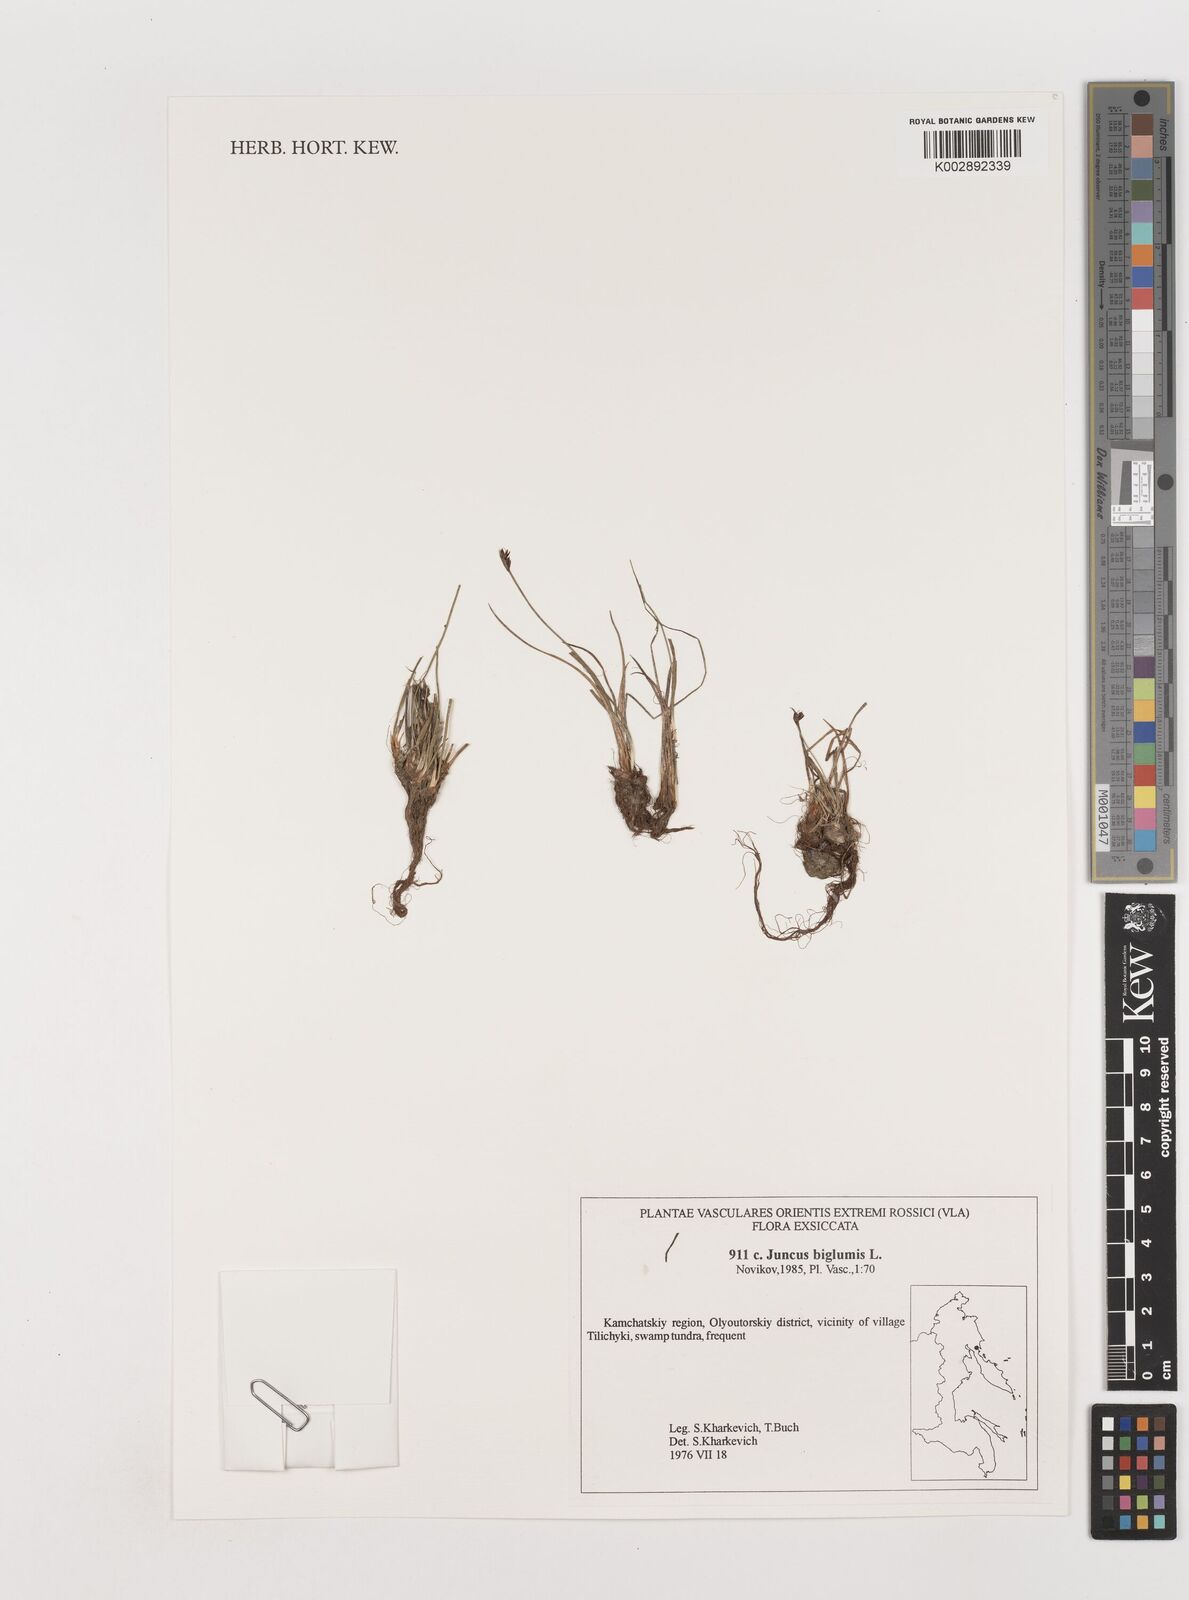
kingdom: Plantae
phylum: Tracheophyta
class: Liliopsida
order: Poales
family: Juncaceae
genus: Juncus
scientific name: Juncus biglumis
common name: Two-flowered rush
